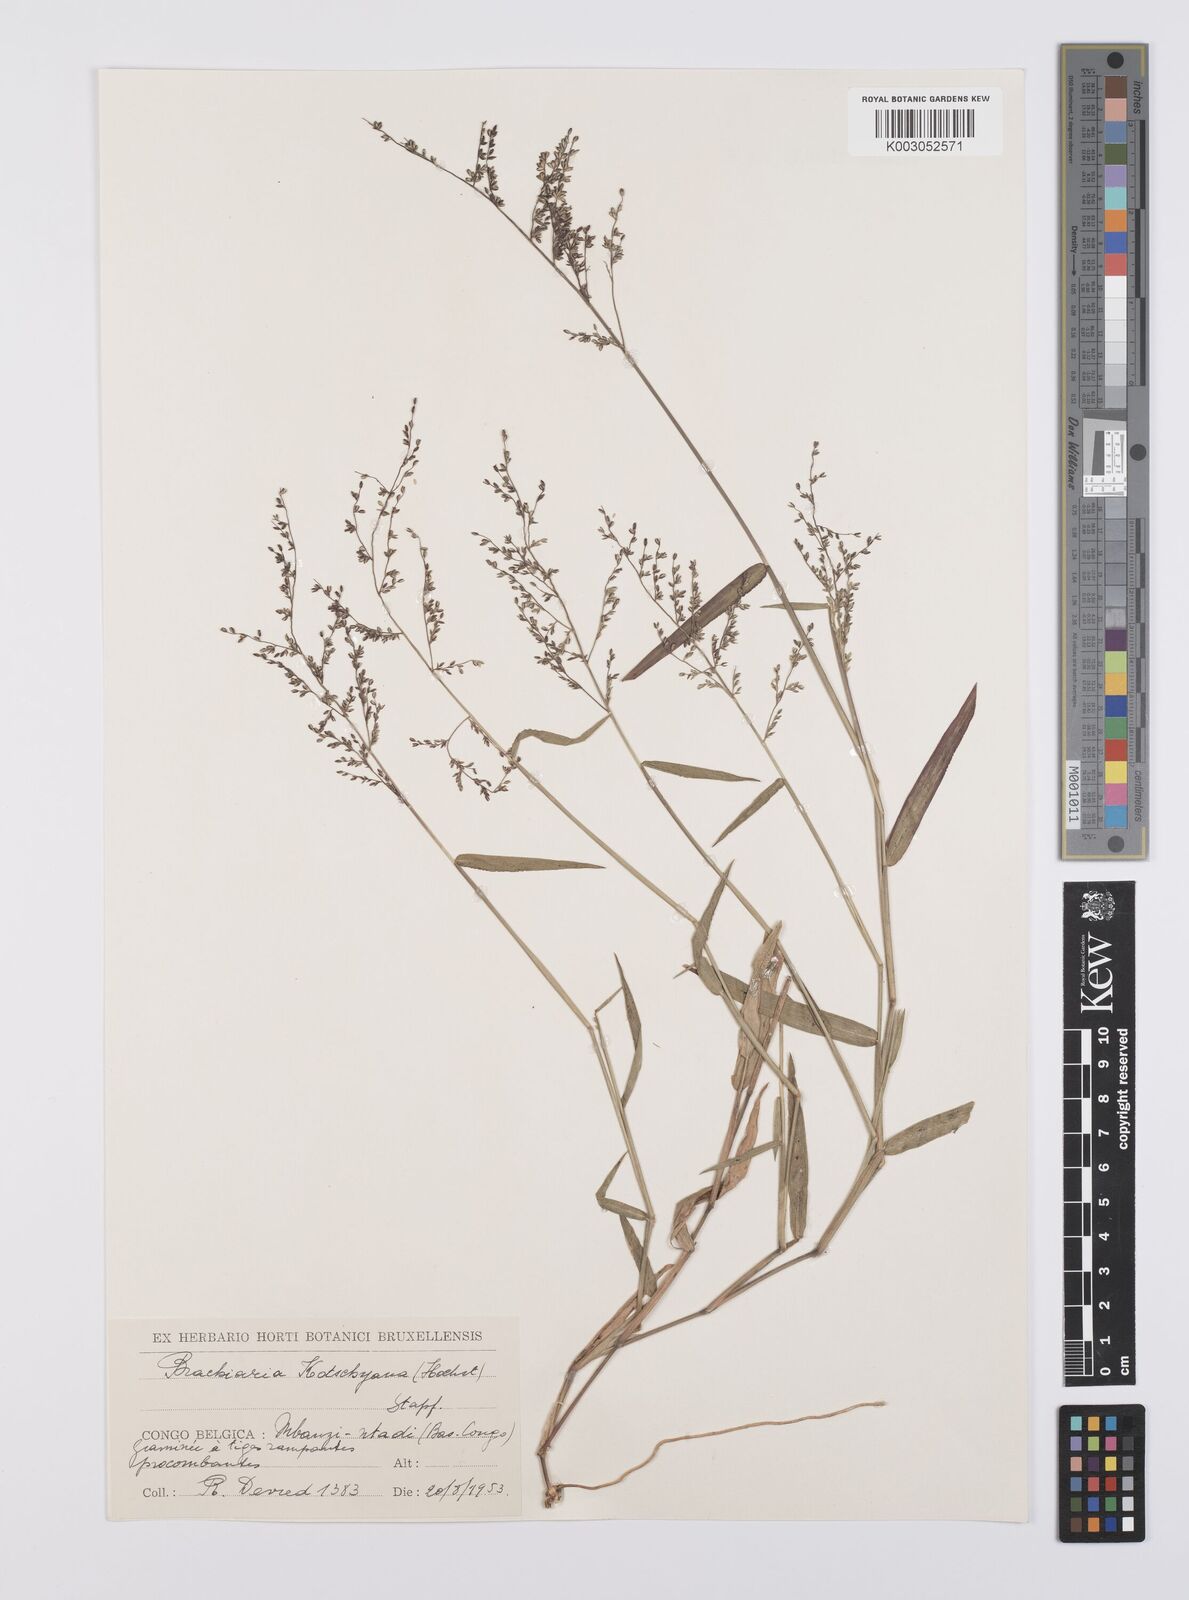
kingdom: Plantae
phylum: Tracheophyta
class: Liliopsida
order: Poales
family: Poaceae
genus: Urochloa
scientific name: Urochloa comata
